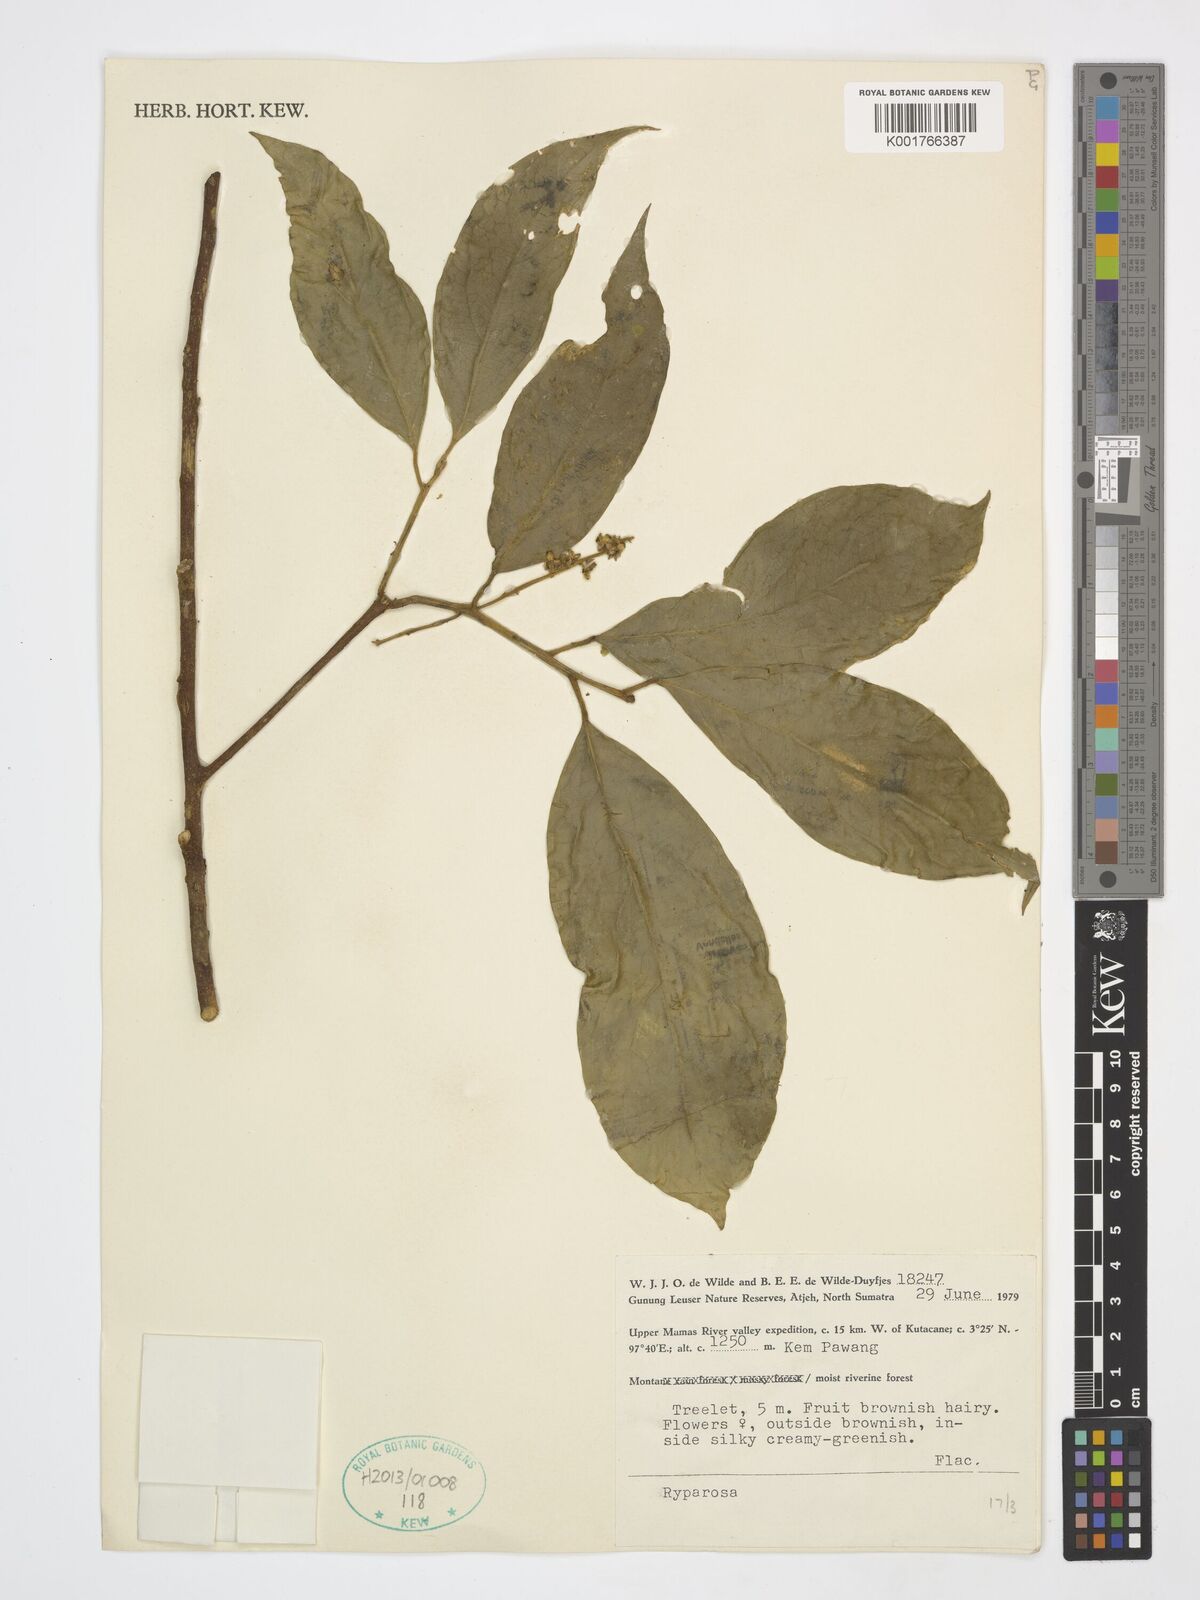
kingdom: Plantae
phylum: Tracheophyta
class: Magnoliopsida
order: Malpighiales
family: Achariaceae
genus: Ryparosa
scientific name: Ryparosa
